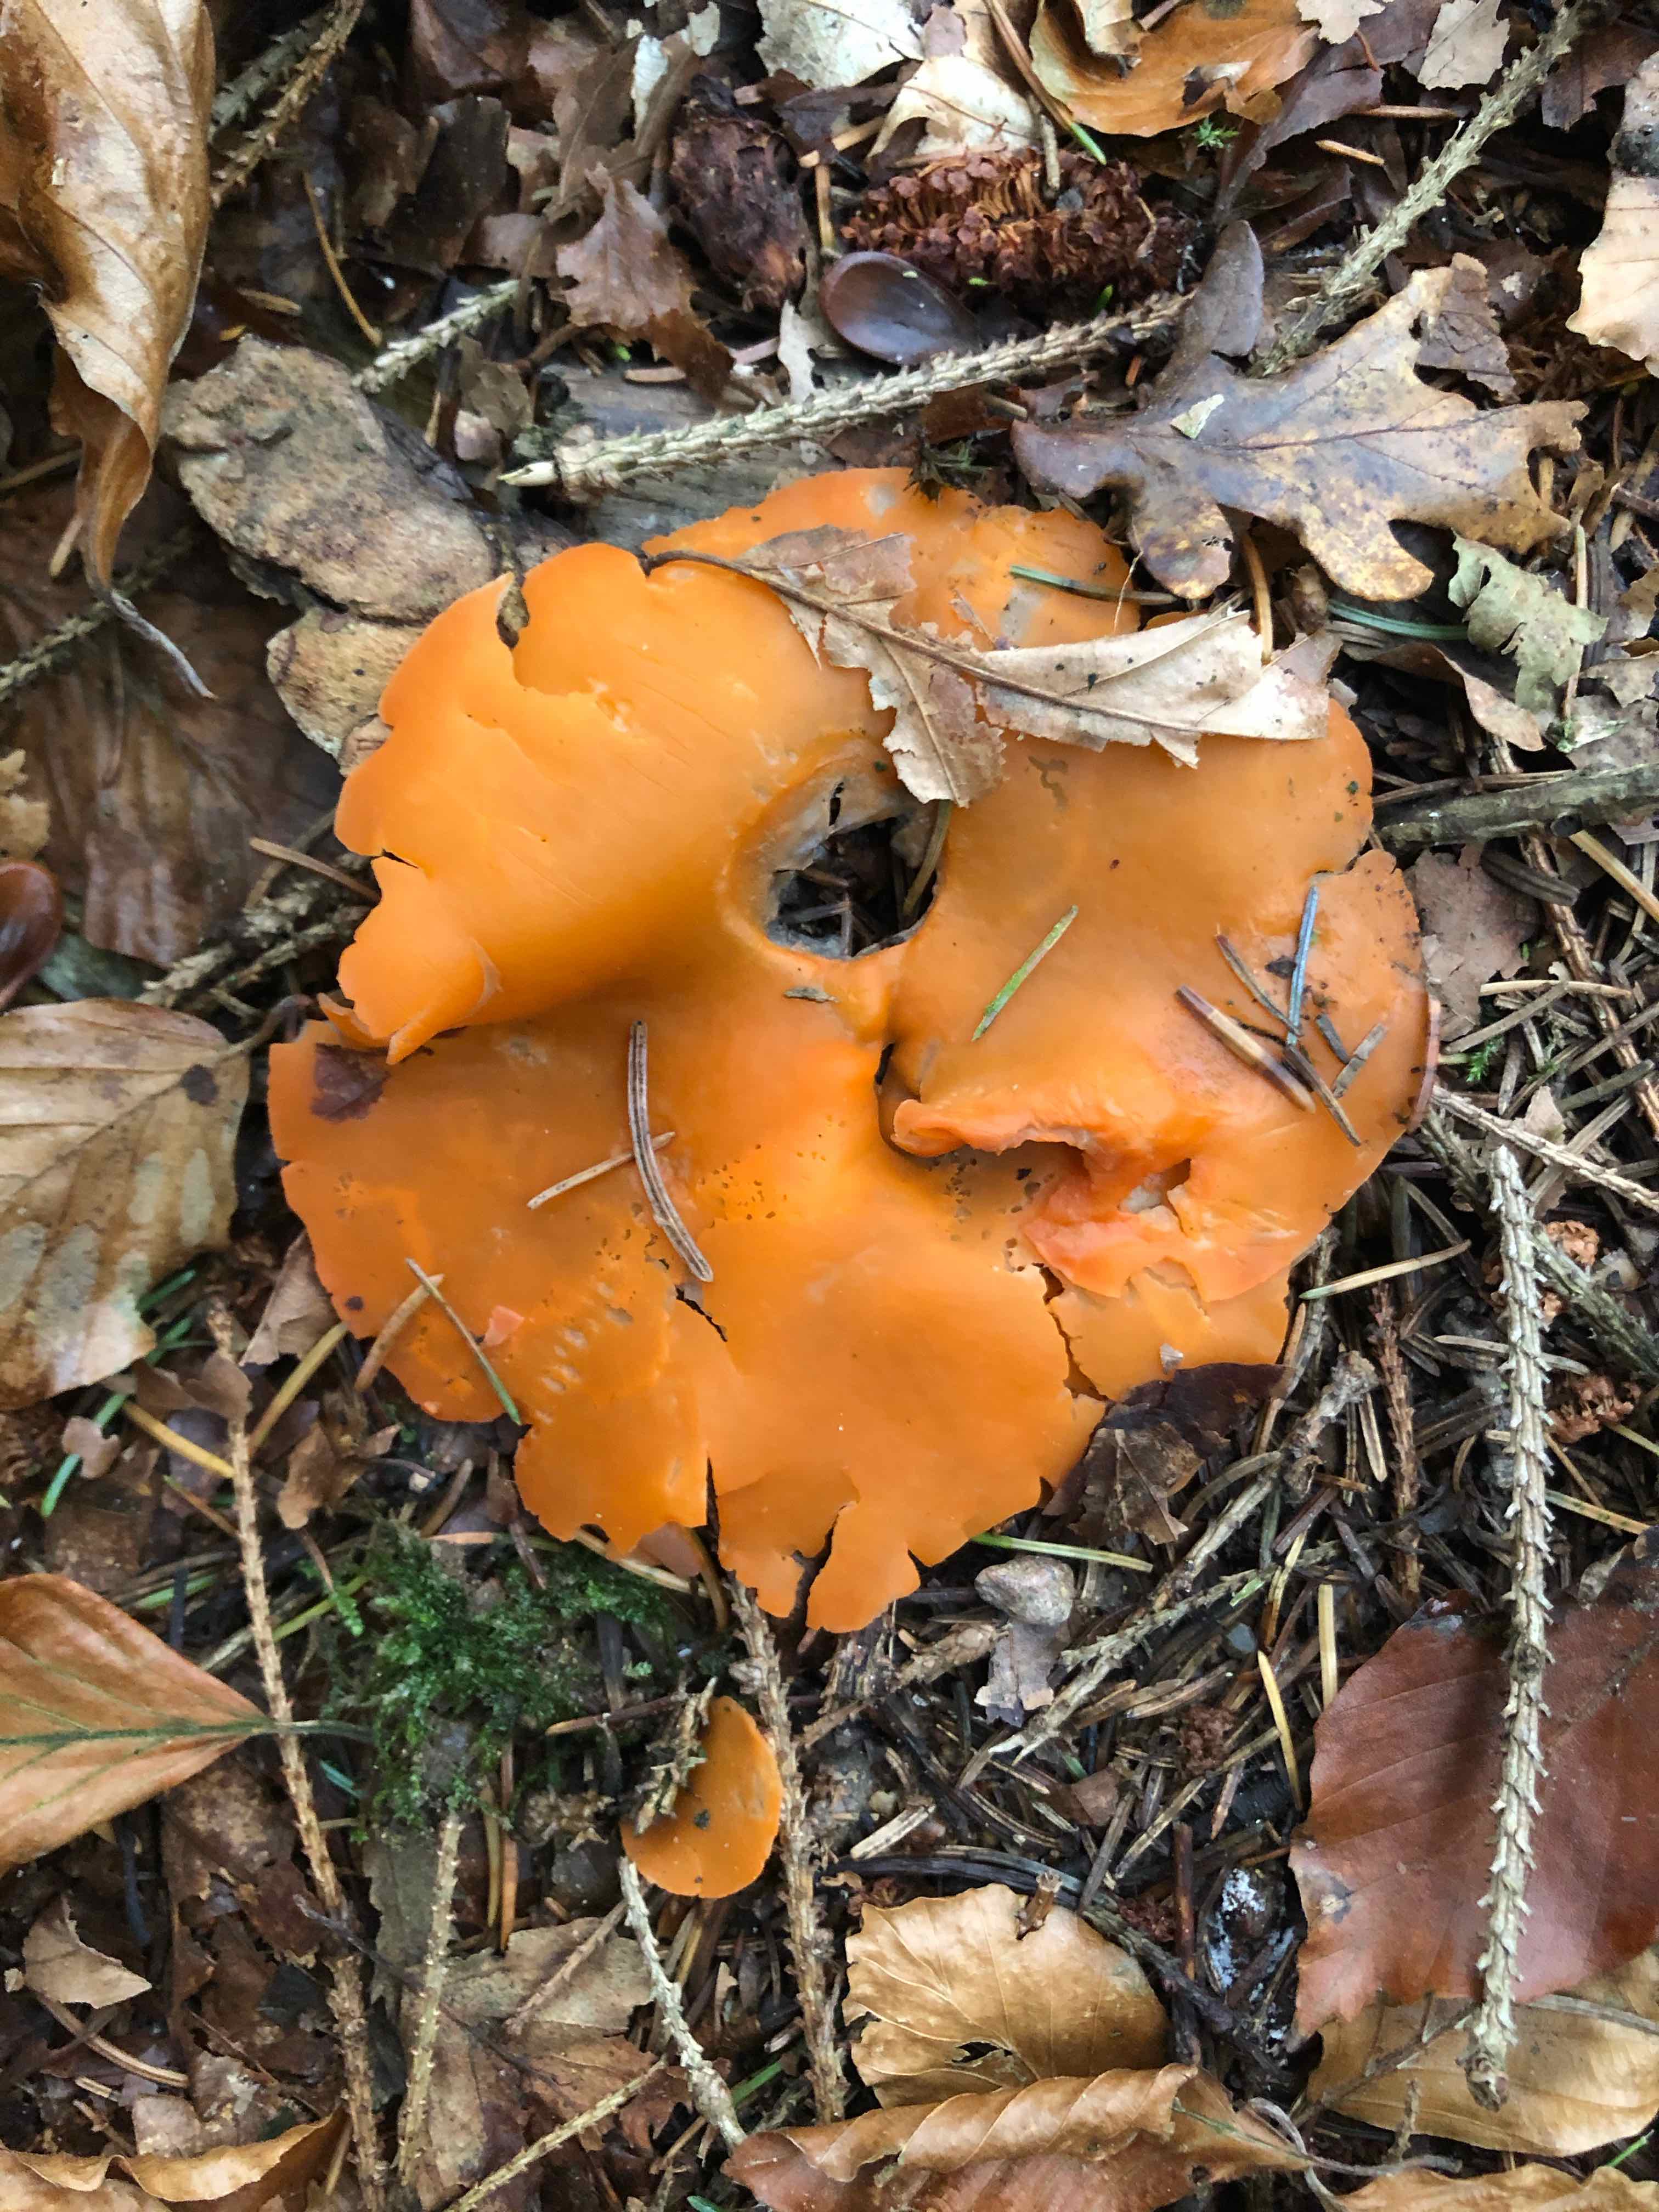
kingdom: Fungi
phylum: Ascomycota
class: Pezizomycetes
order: Pezizales
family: Pyronemataceae
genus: Aleuria
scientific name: Aleuria aurantia
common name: almindelig orangebæger
